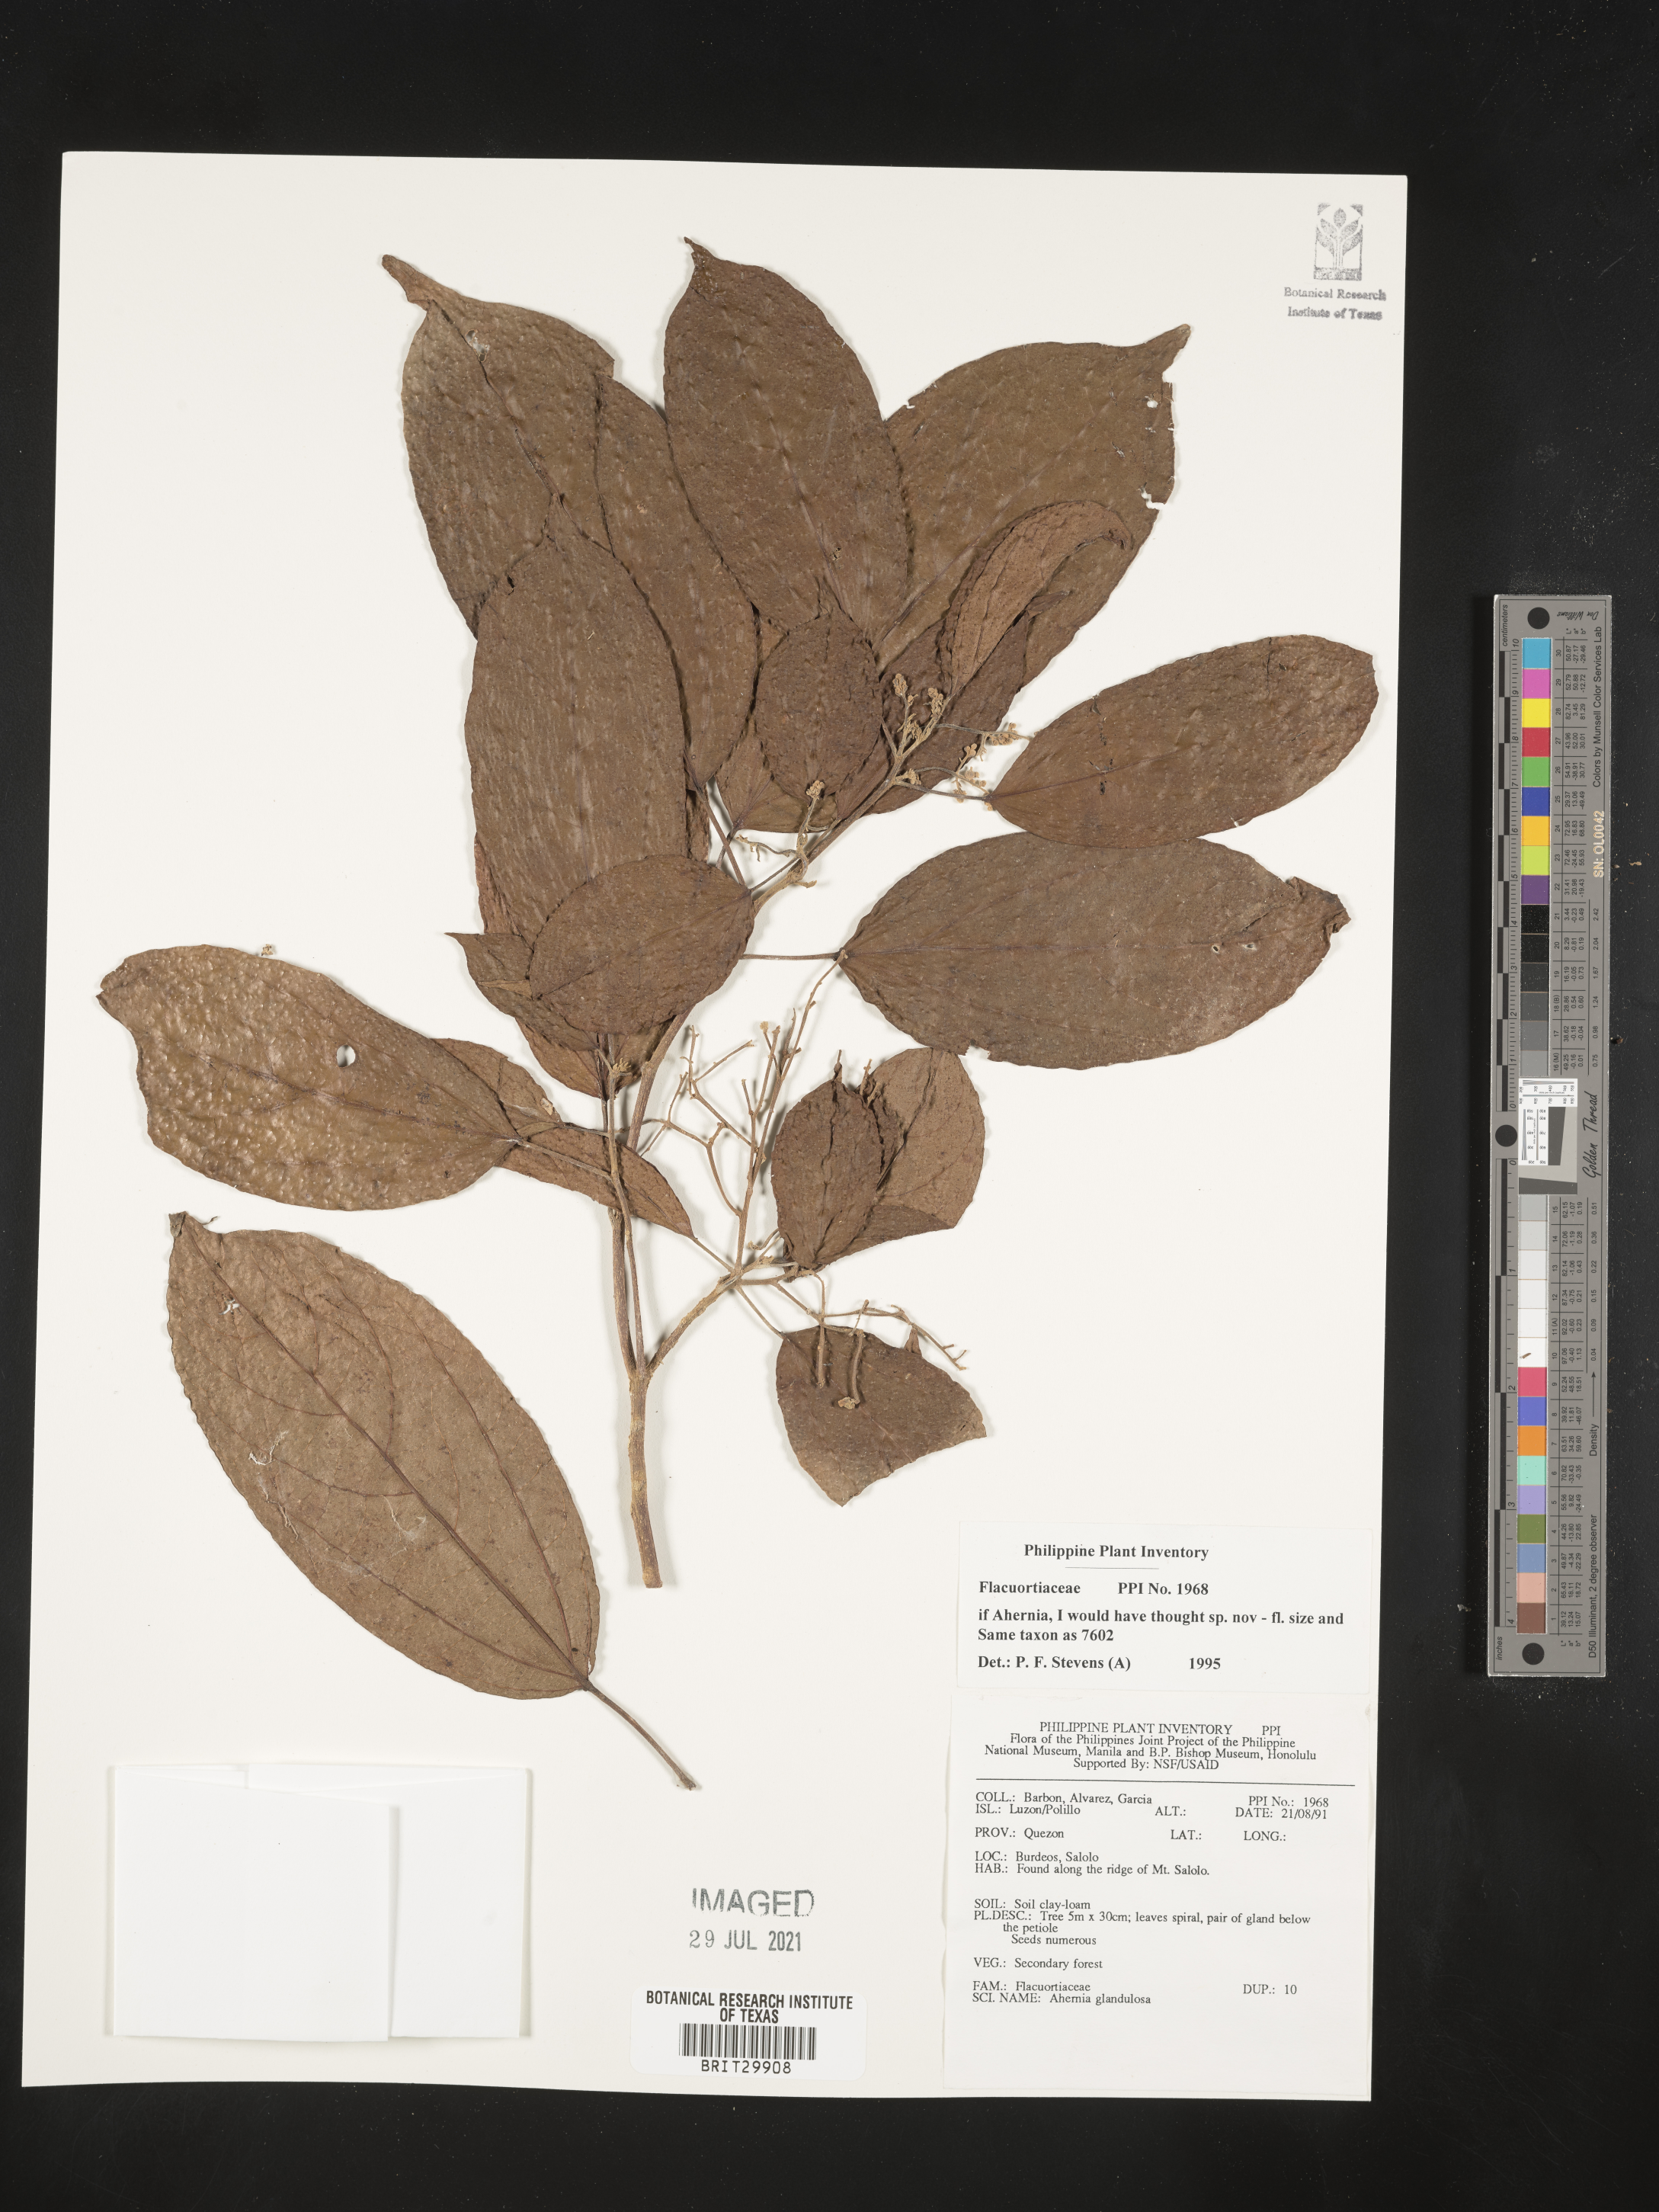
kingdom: Plantae
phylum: Tracheophyta
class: Magnoliopsida
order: Malpighiales
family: Flacourtiaceae
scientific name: Flacourtiaceae
